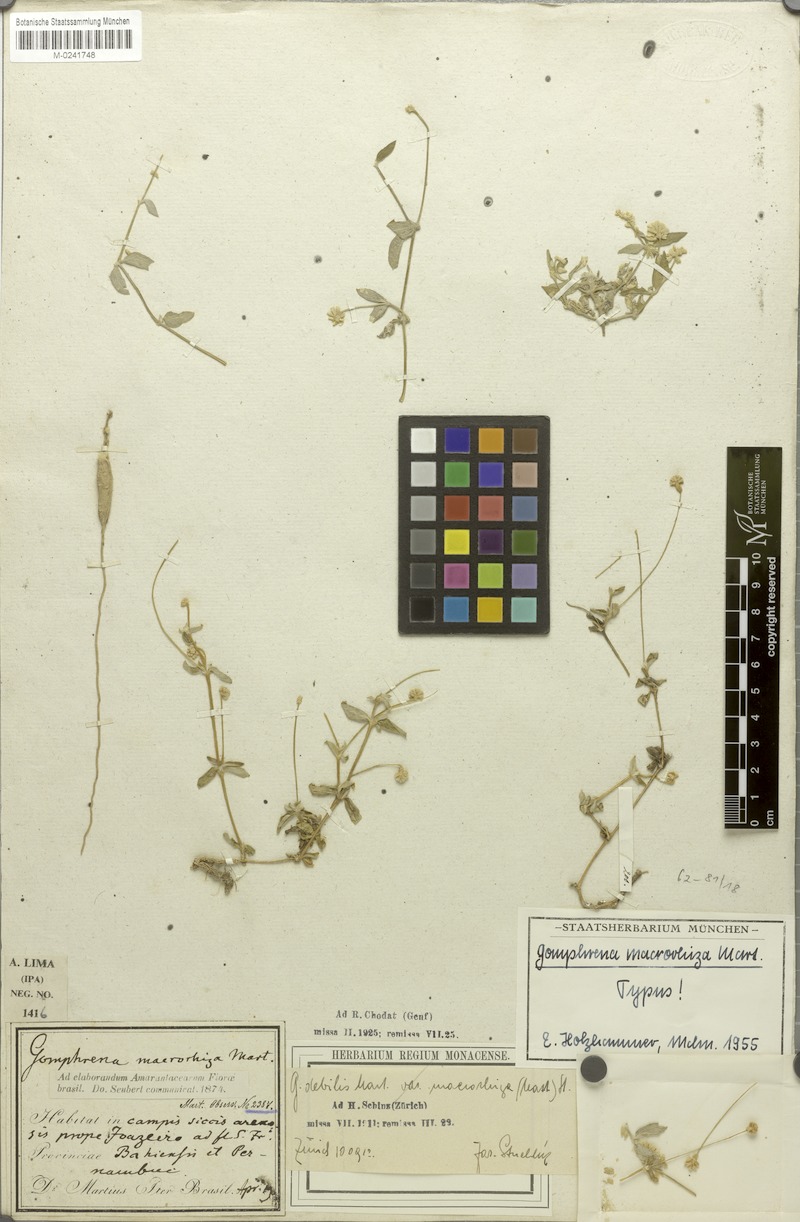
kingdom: Plantae
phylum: Tracheophyta
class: Magnoliopsida
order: Caryophyllales
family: Amaranthaceae
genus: Gomphrena
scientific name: Gomphrena macrorhiza
